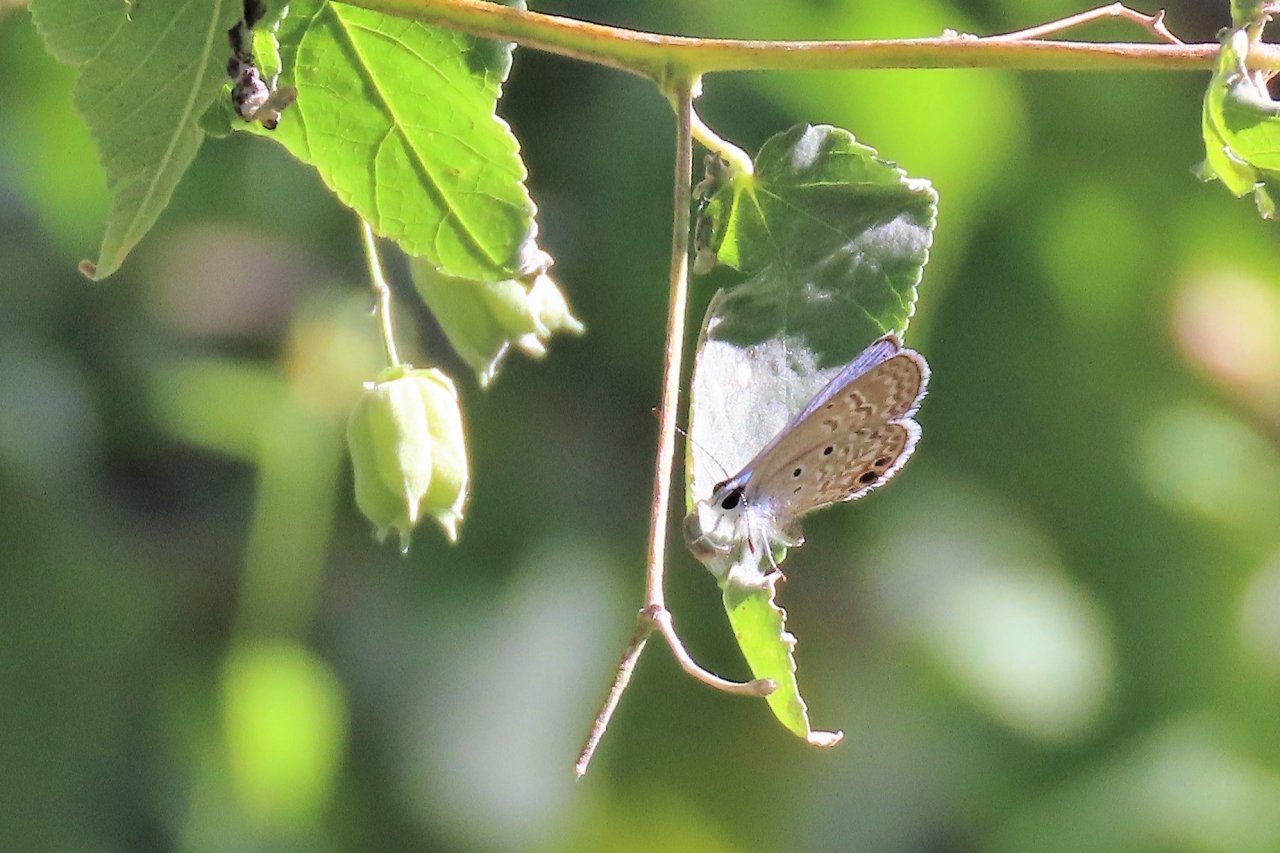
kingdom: Animalia
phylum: Arthropoda
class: Insecta
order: Lepidoptera
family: Lycaenidae
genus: Hemiargus
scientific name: Hemiargus ceraunus
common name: Ceraunus Blue
